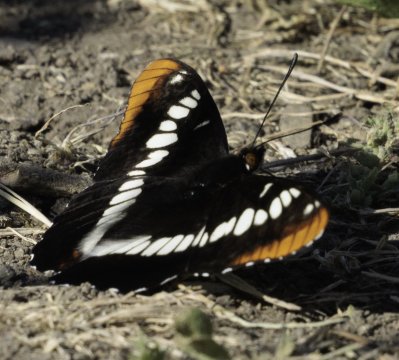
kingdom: Animalia
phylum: Arthropoda
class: Insecta
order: Lepidoptera
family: Nymphalidae
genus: Limenitis
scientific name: Limenitis lorquini
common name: Lorquin's Admiral
